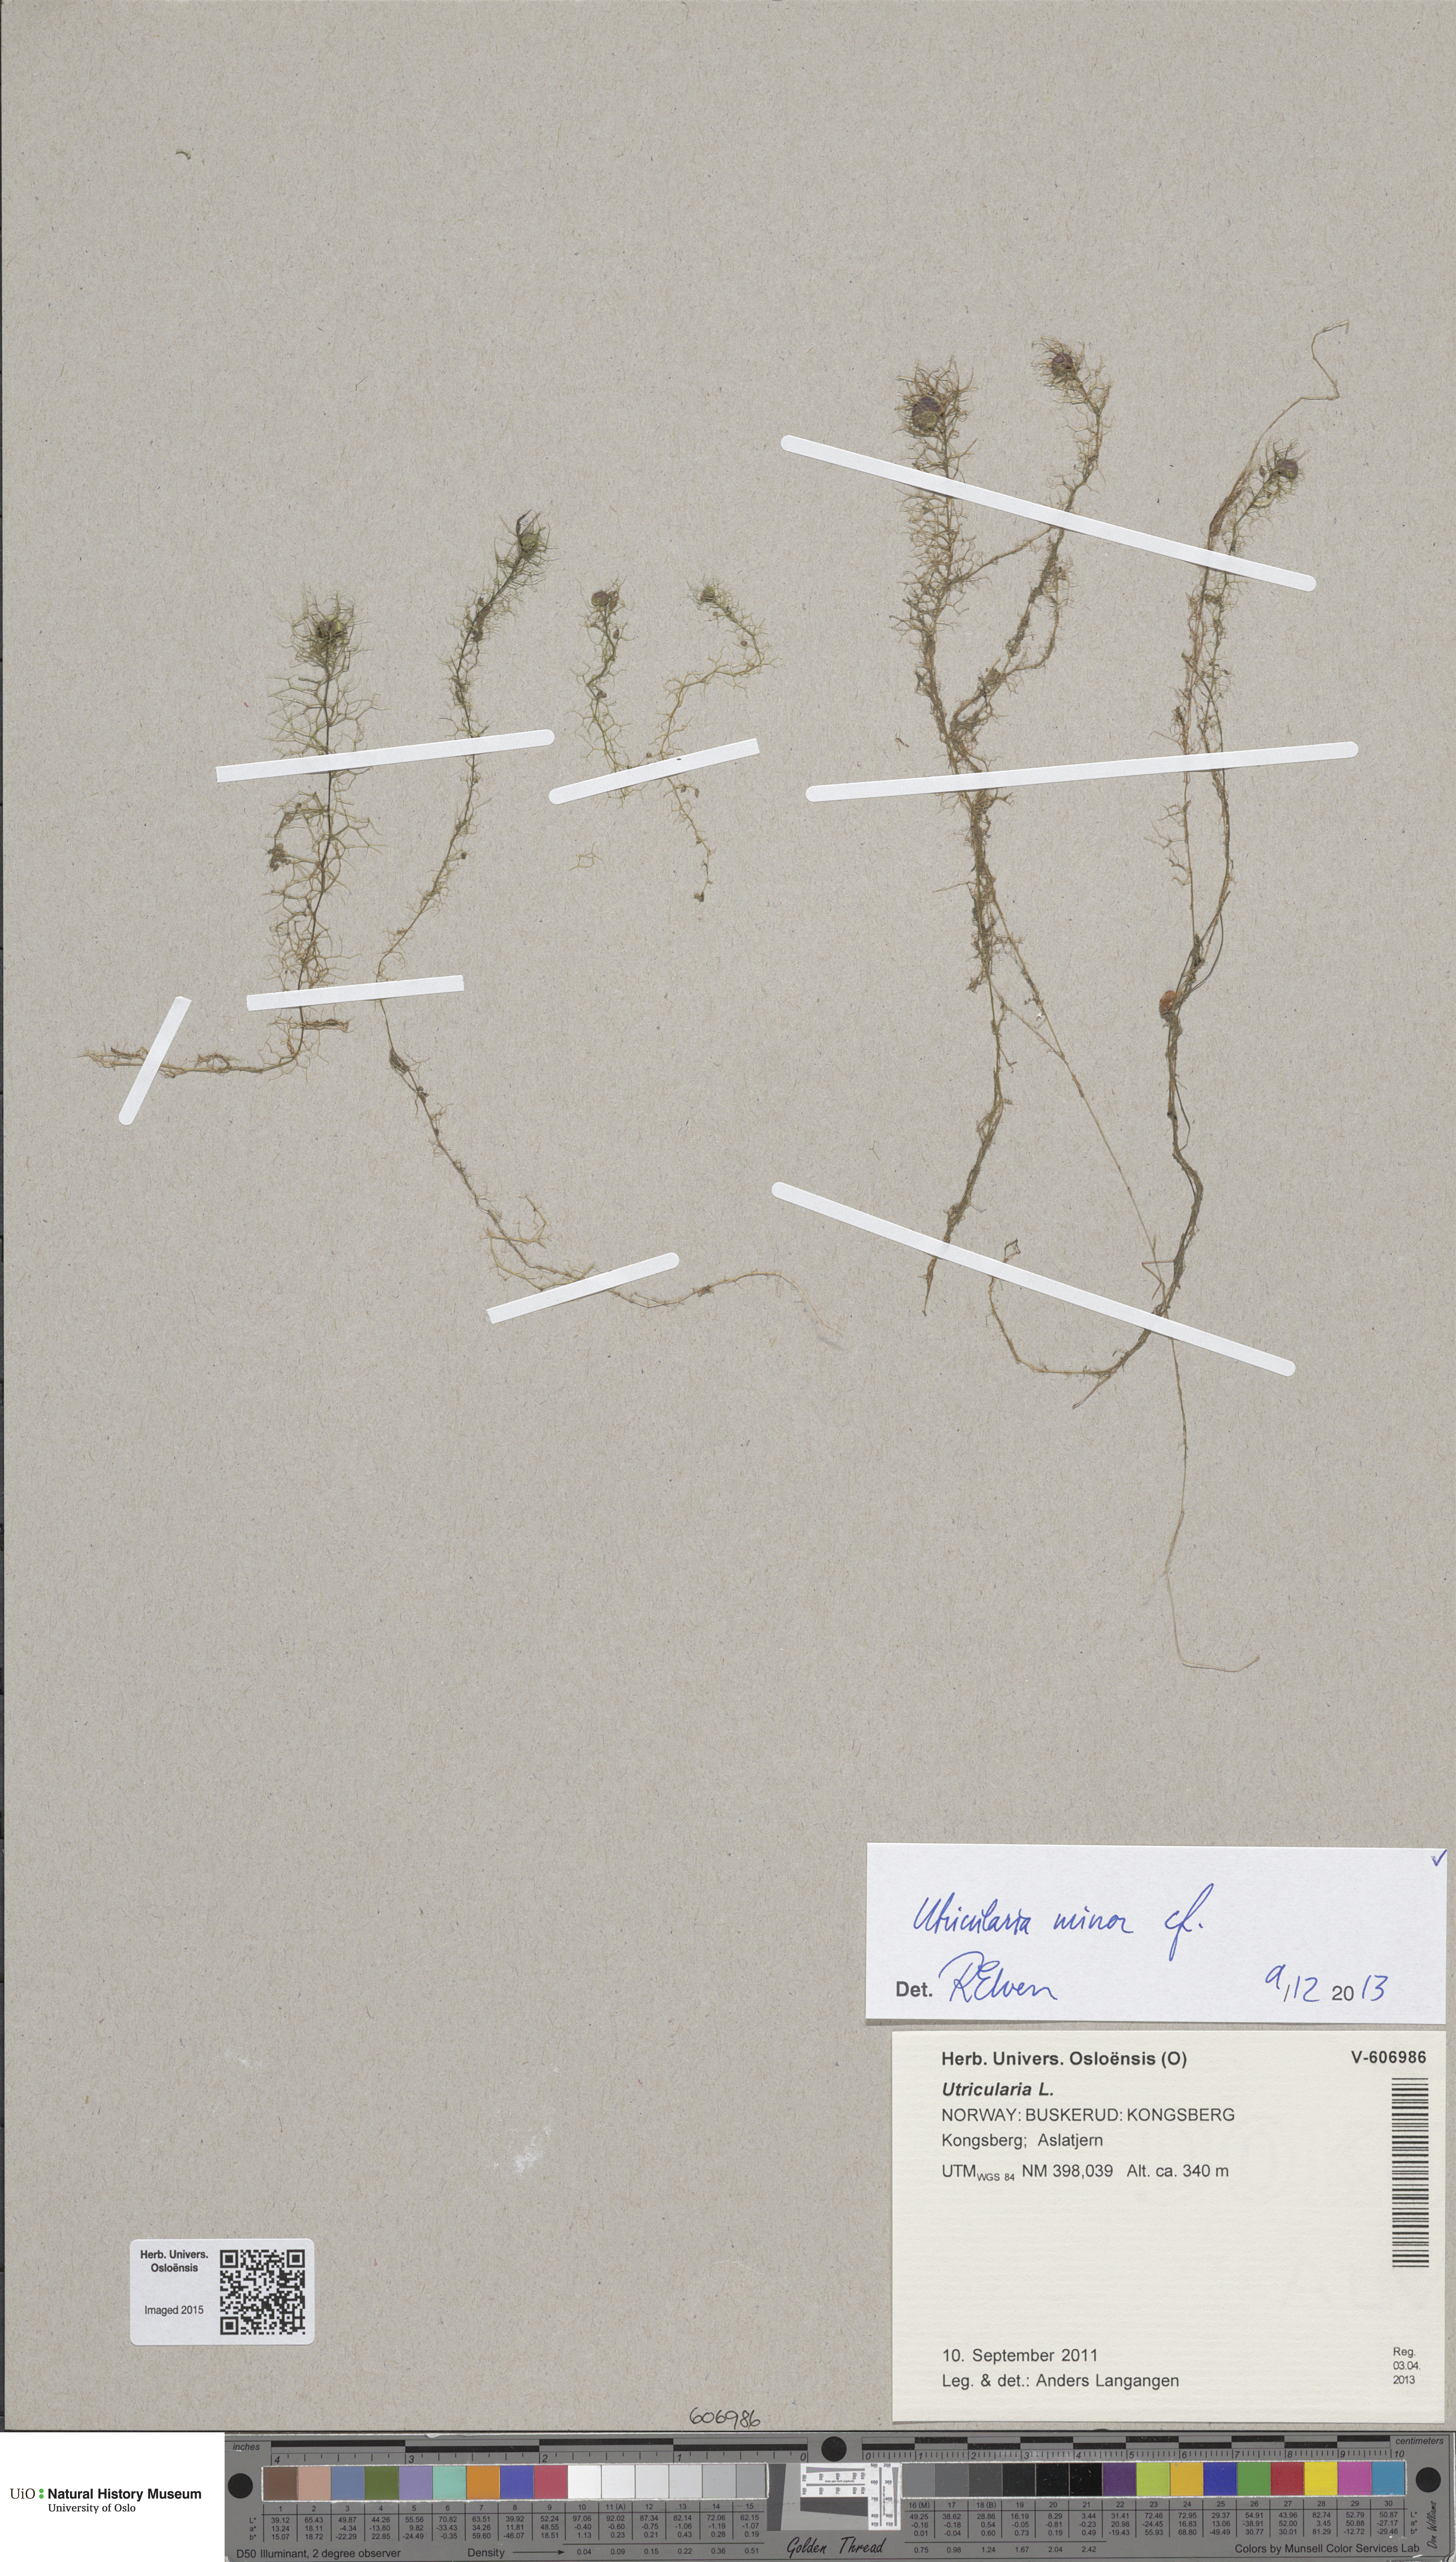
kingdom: Plantae
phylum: Tracheophyta
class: Magnoliopsida
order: Lamiales
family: Lentibulariaceae
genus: Utricularia
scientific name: Utricularia minor
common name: Lesser bladderwort
